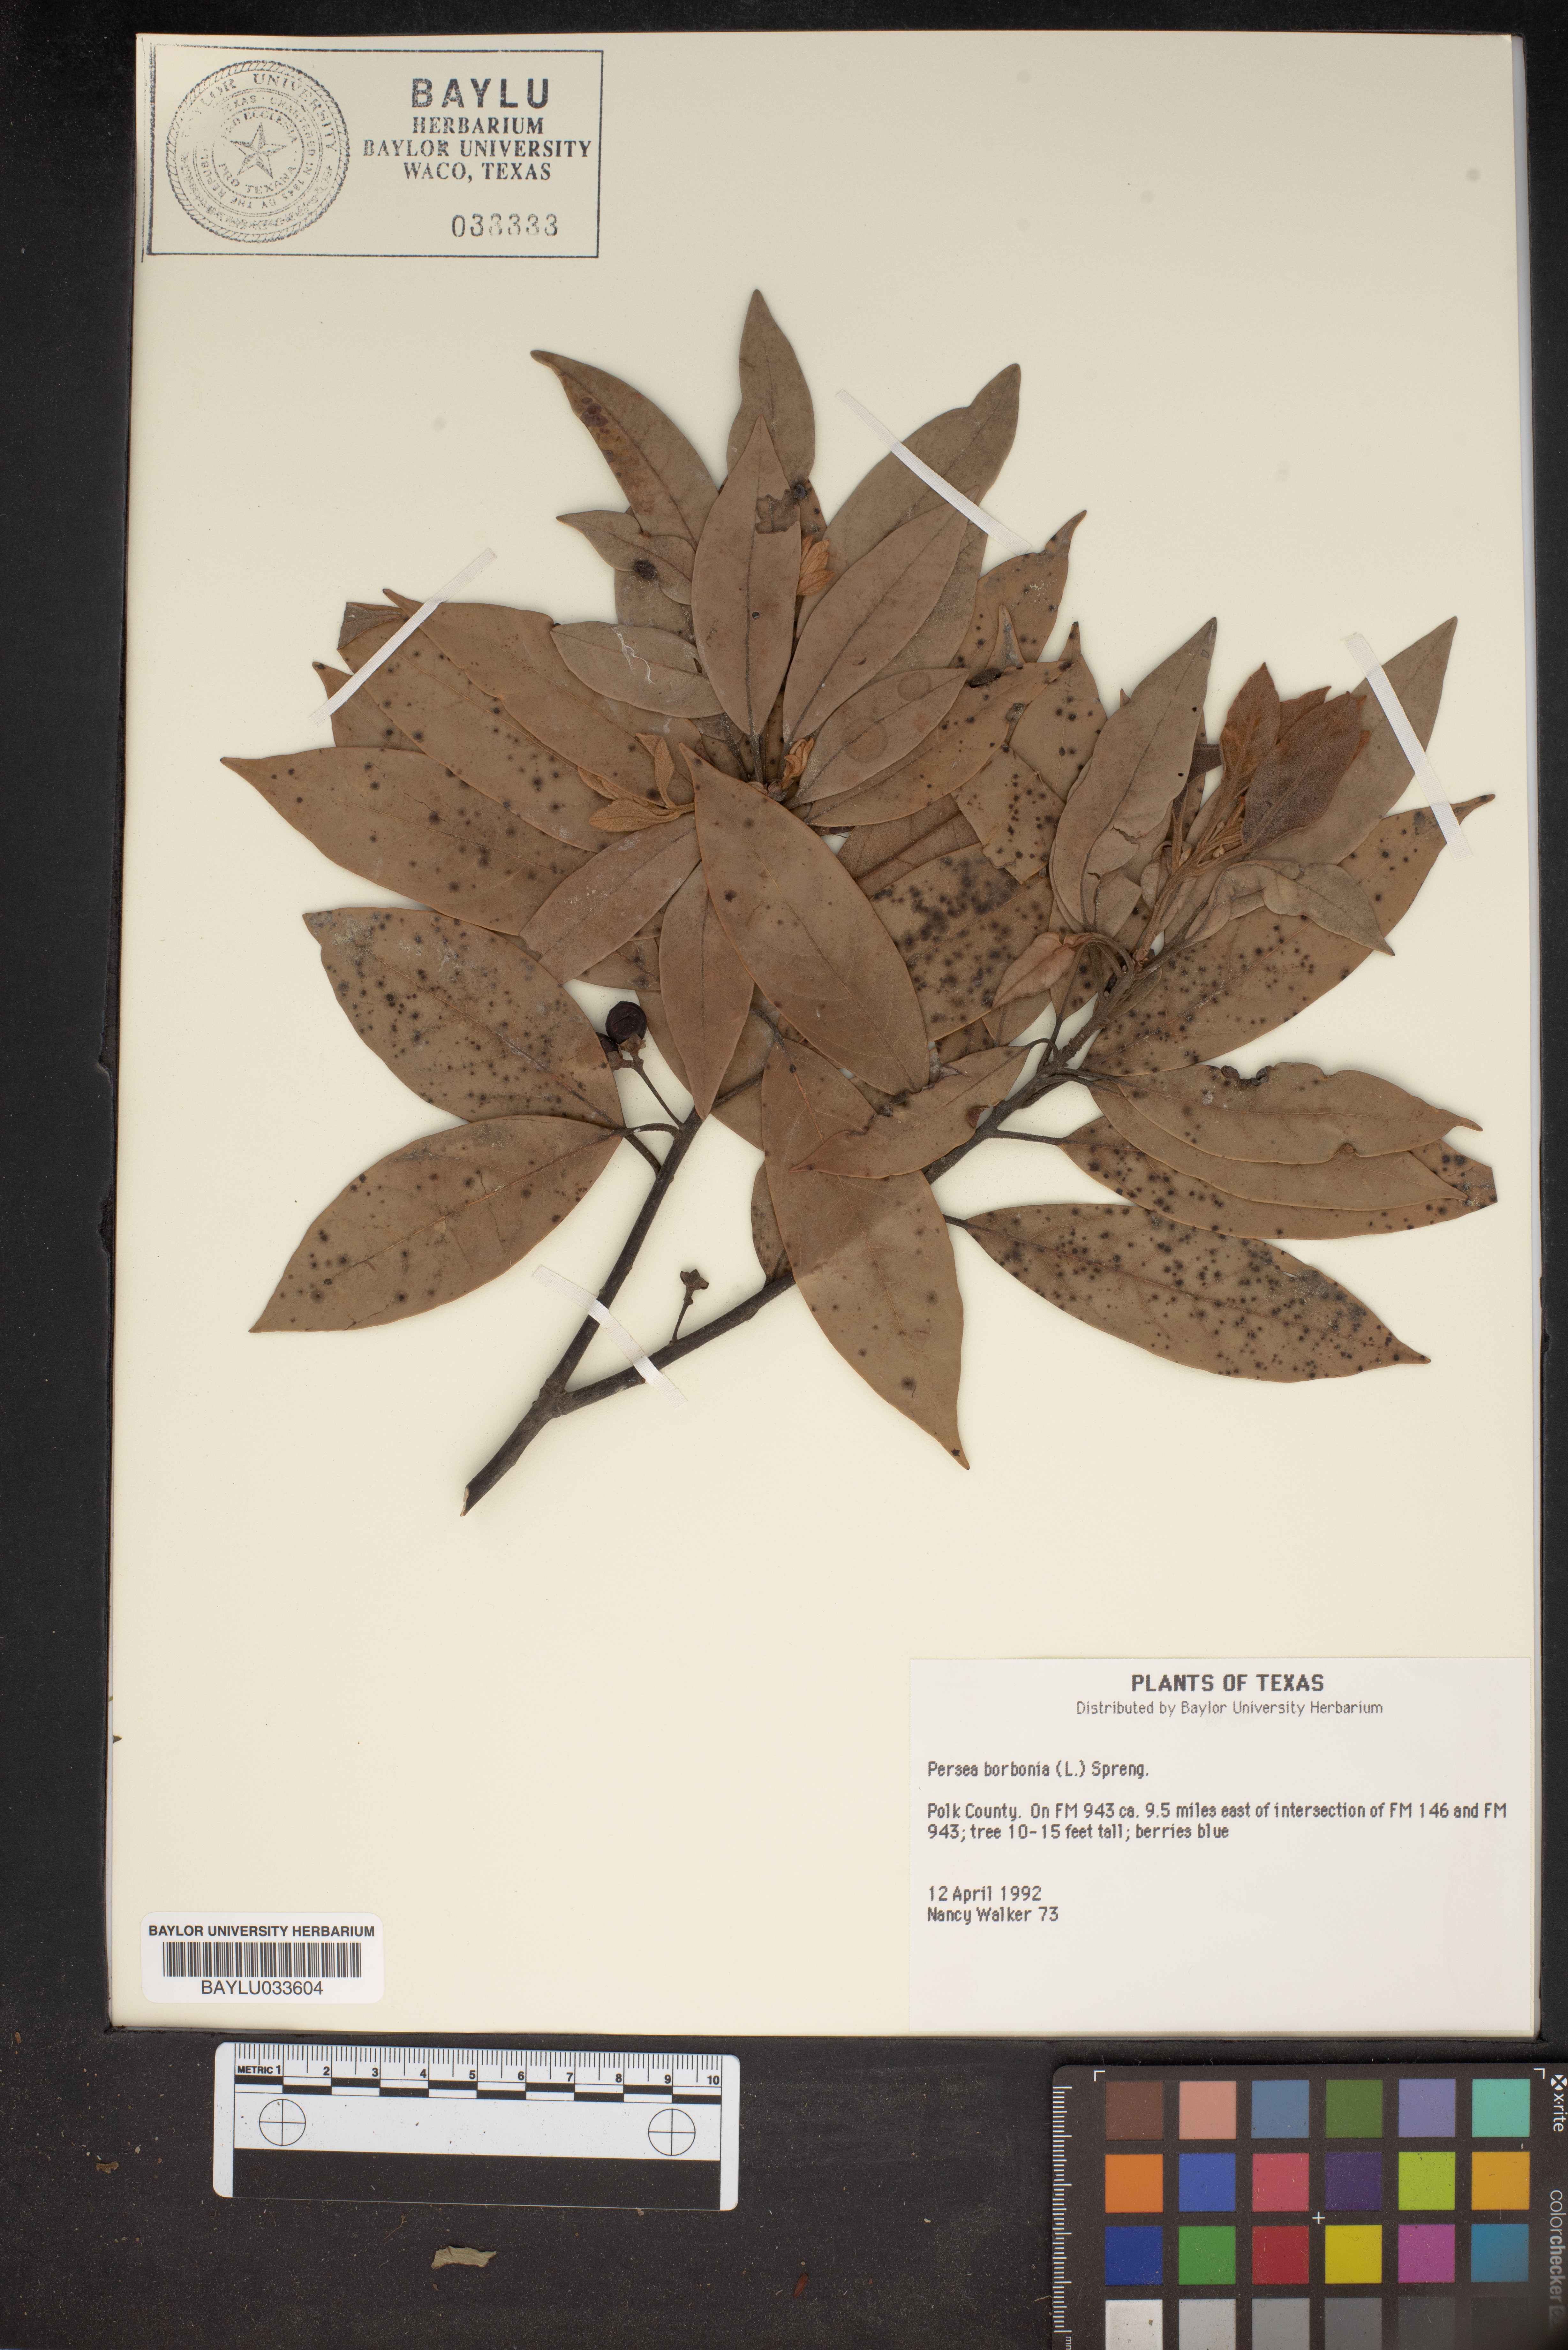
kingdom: Plantae
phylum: Tracheophyta
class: Magnoliopsida
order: Laurales
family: Lauraceae
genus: Persea
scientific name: Persea borbonia
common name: Redbay
